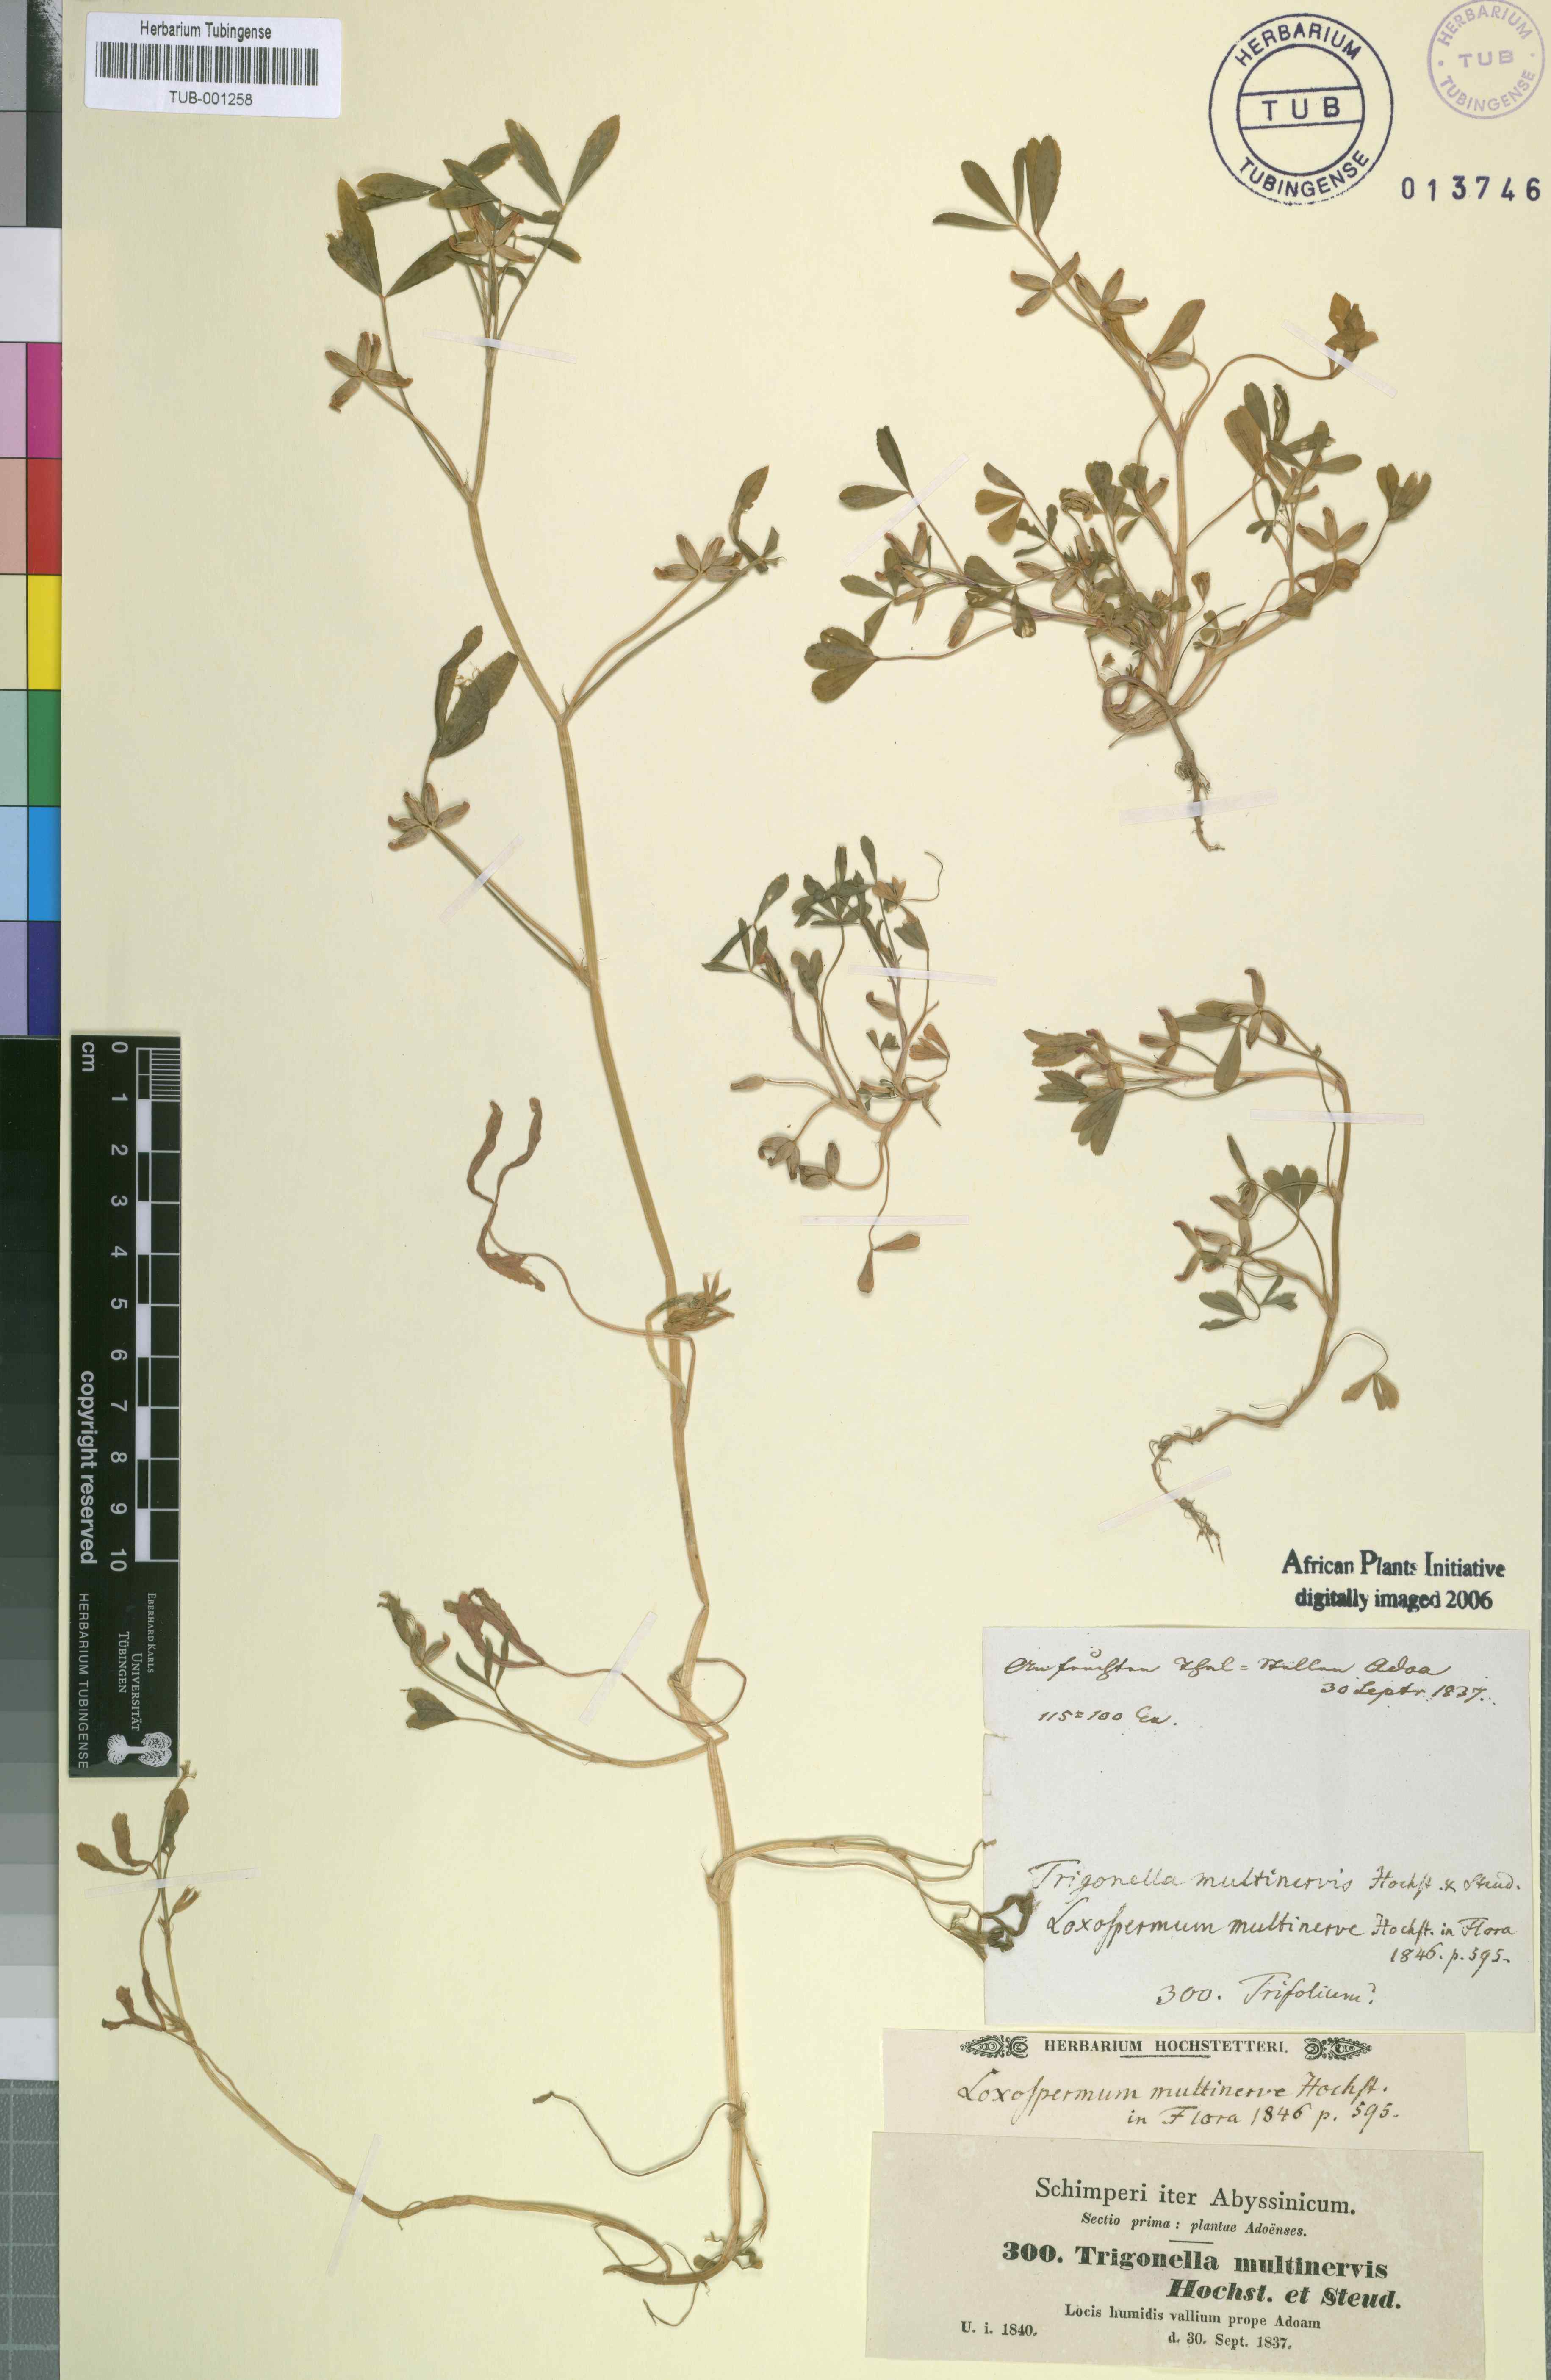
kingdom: Plantae
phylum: Tracheophyta
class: Magnoliopsida
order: Fabales
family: Fabaceae
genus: Trifolium
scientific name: Trifolium multinerve
